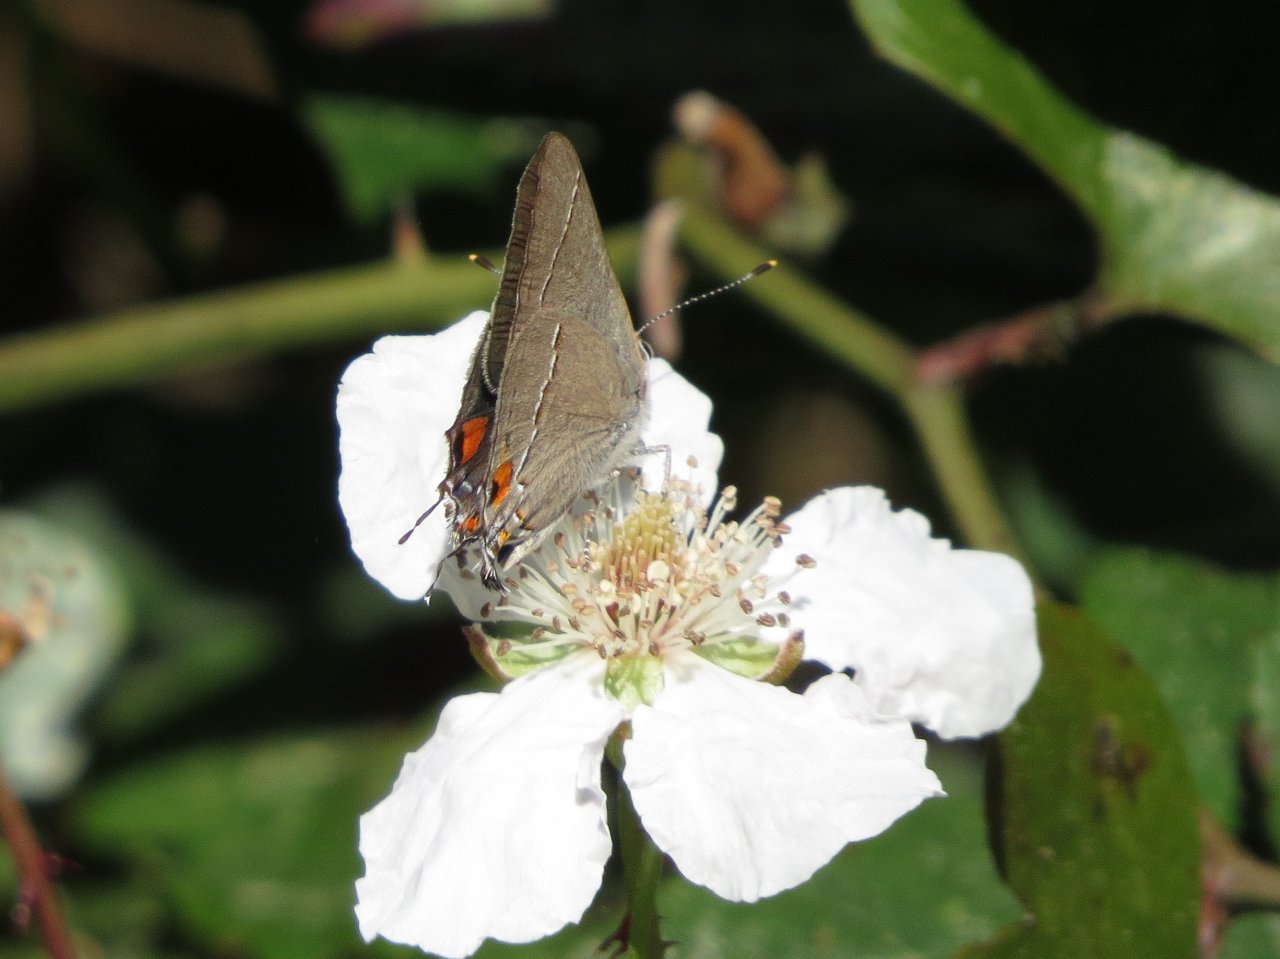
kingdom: Animalia
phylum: Arthropoda
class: Insecta
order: Lepidoptera
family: Lycaenidae
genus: Strymon
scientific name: Strymon melinus
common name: Gray Hairstreak
